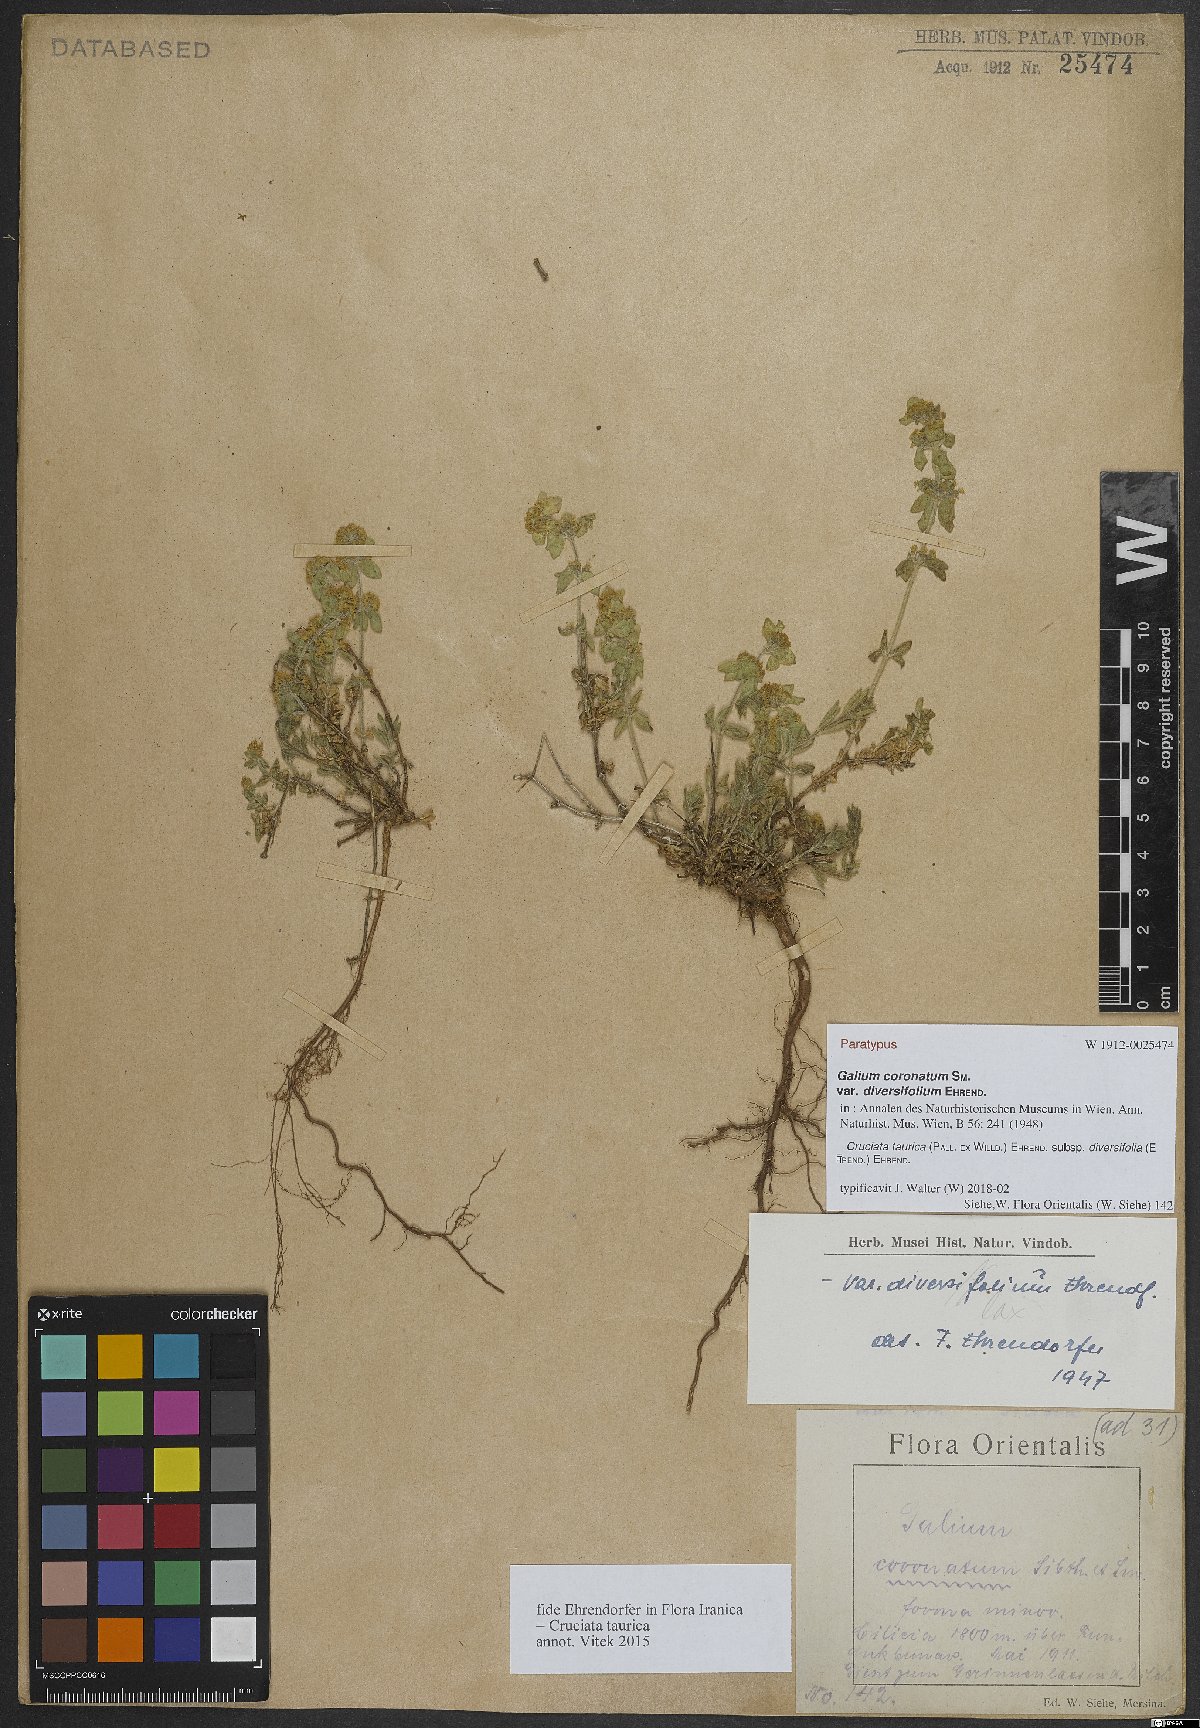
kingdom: Plantae
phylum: Tracheophyta
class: Magnoliopsida
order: Gentianales
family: Rubiaceae
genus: Cruciata
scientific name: Cruciata taurica
